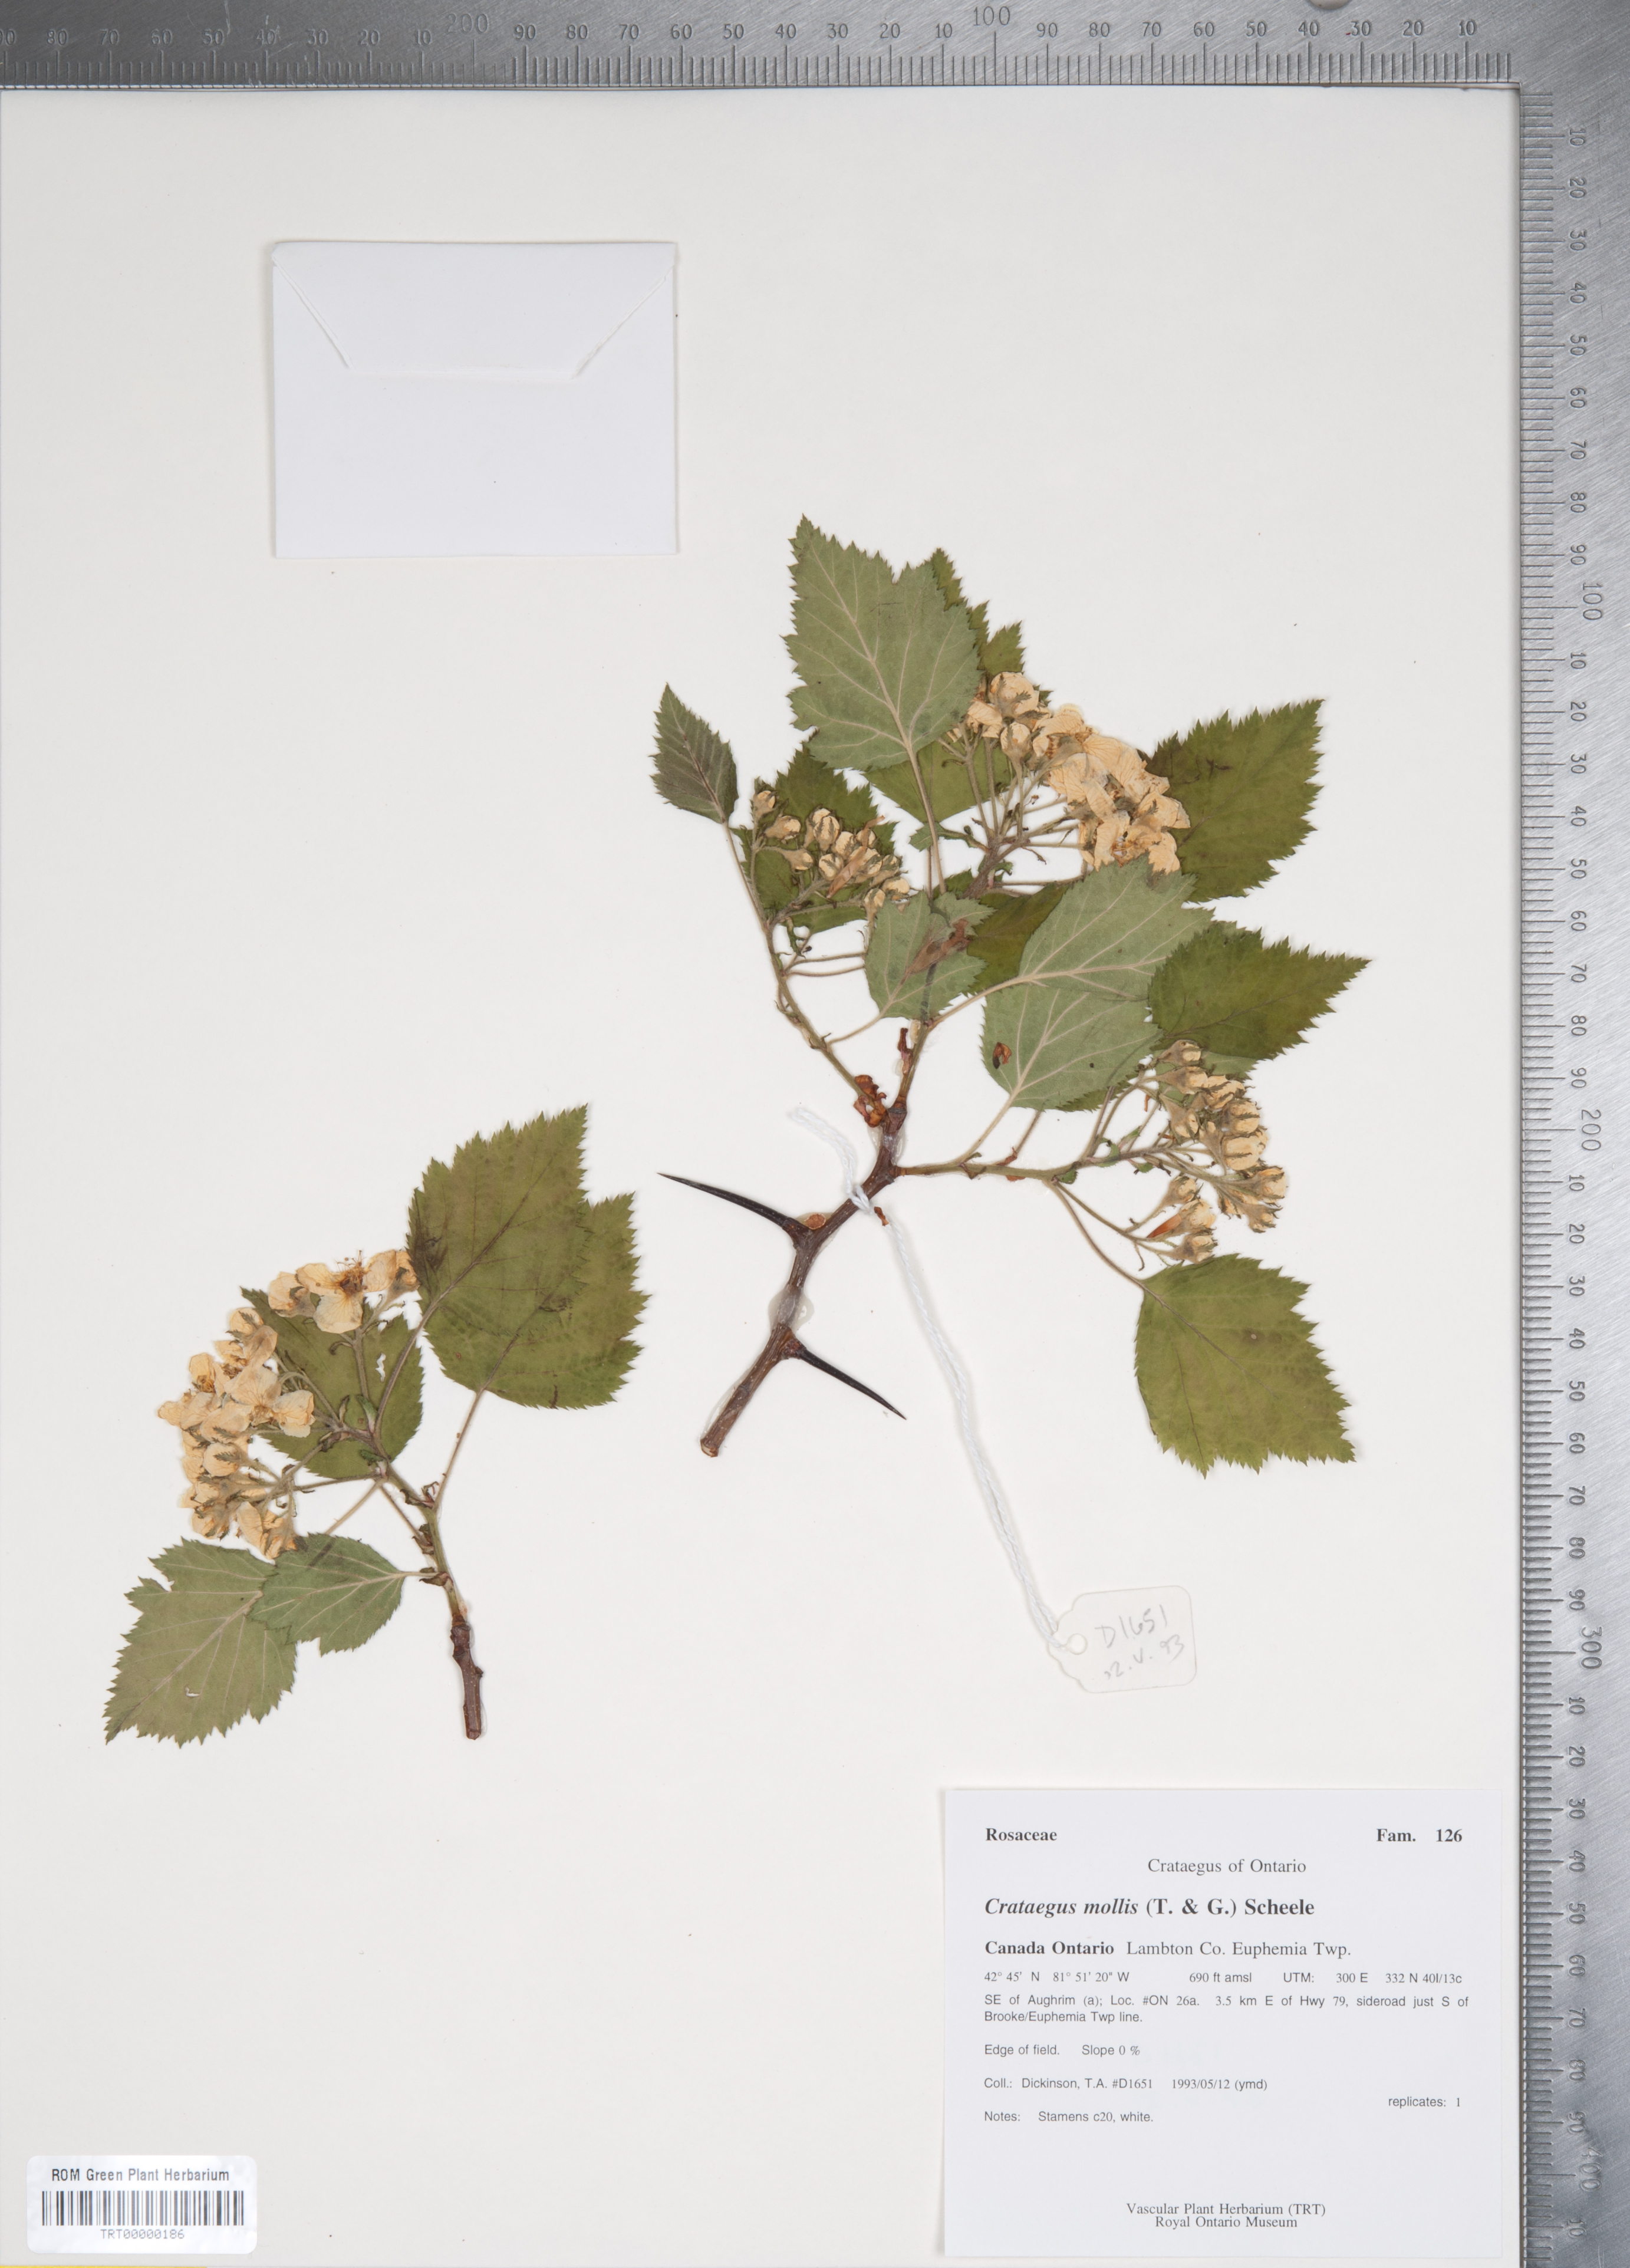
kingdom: Plantae
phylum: Tracheophyta
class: Magnoliopsida
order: Rosales
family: Rosaceae
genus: Crataegus
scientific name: Crataegus mollis
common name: Downy hawthorn
